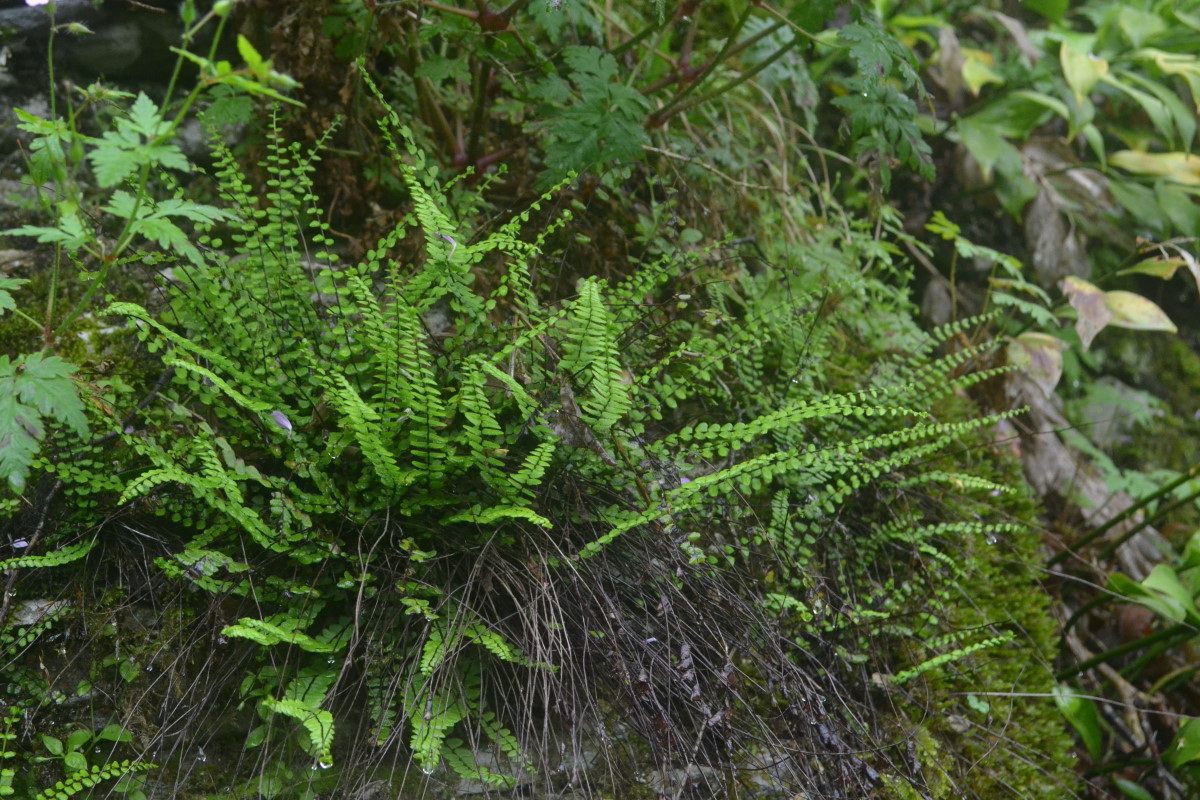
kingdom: Plantae
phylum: Tracheophyta
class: Polypodiopsida
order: Polypodiales
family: Aspleniaceae
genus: Asplenium
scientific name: Asplenium trichomanes
